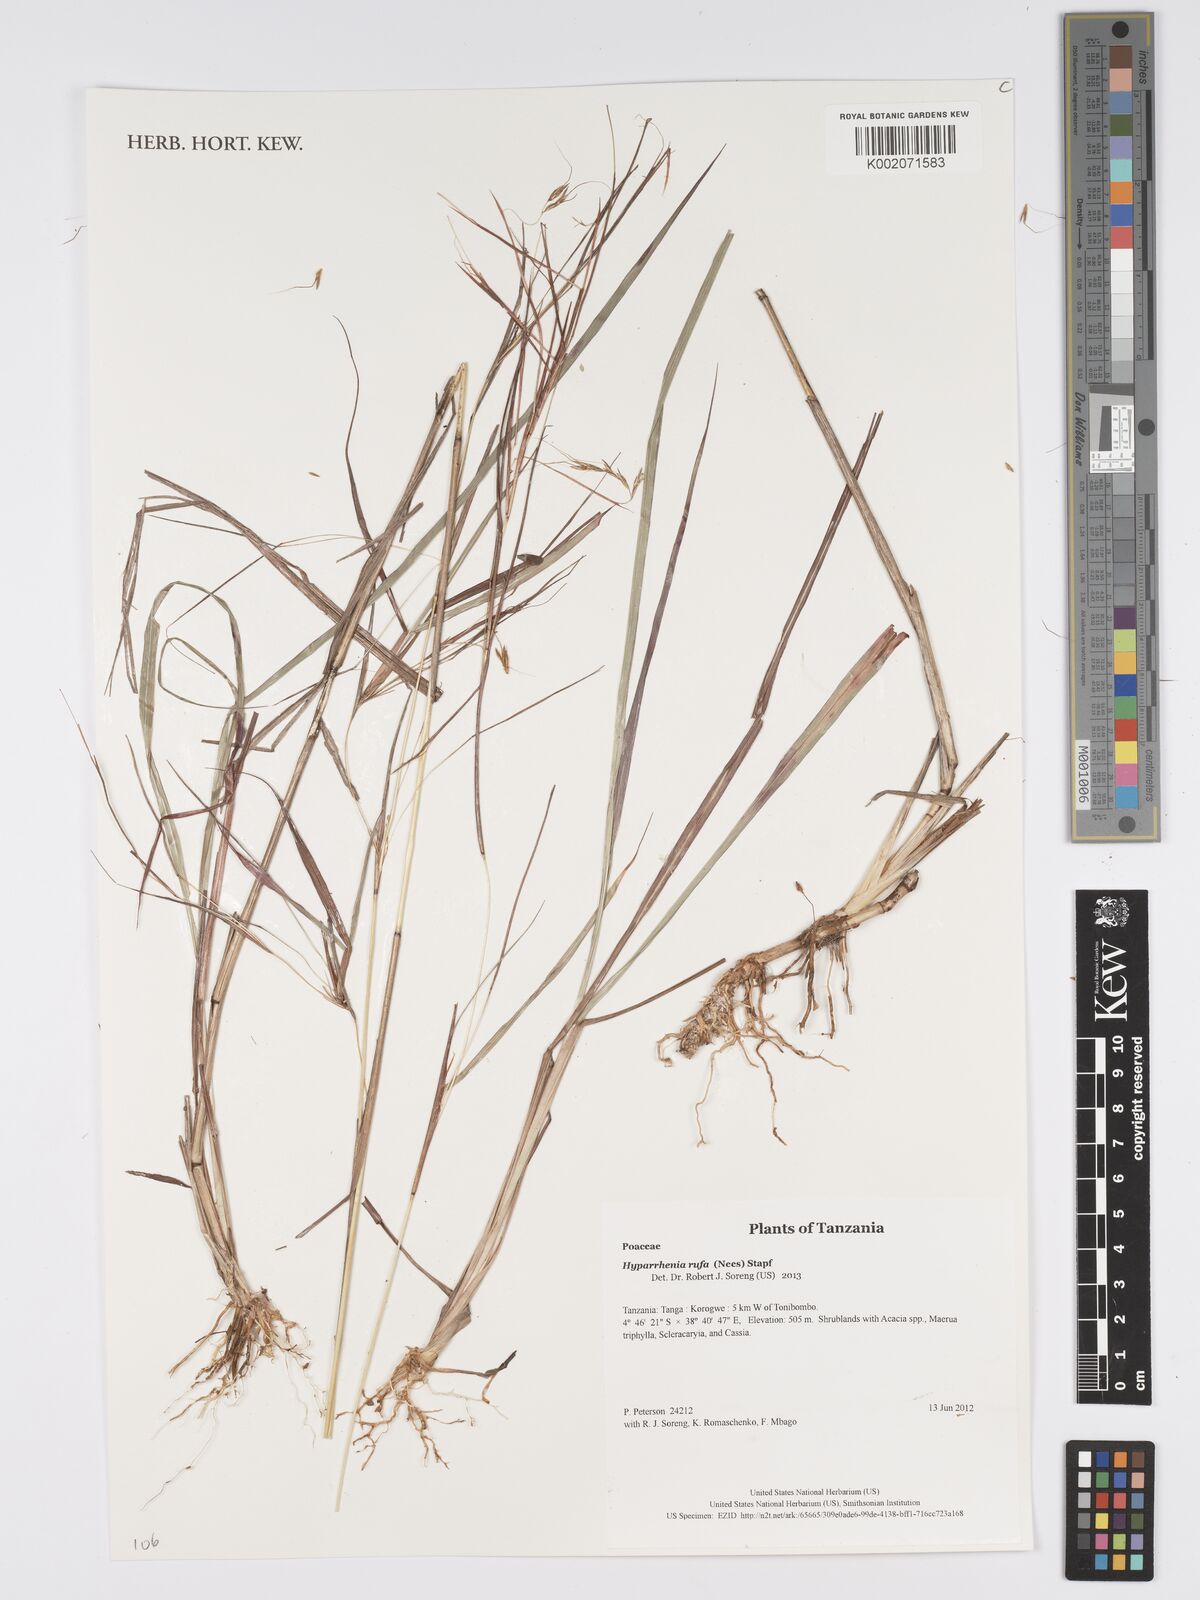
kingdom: Plantae
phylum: Tracheophyta
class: Liliopsida
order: Poales
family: Poaceae
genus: Hyparrhenia
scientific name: Hyparrhenia rufa
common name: Jaraguagrass
